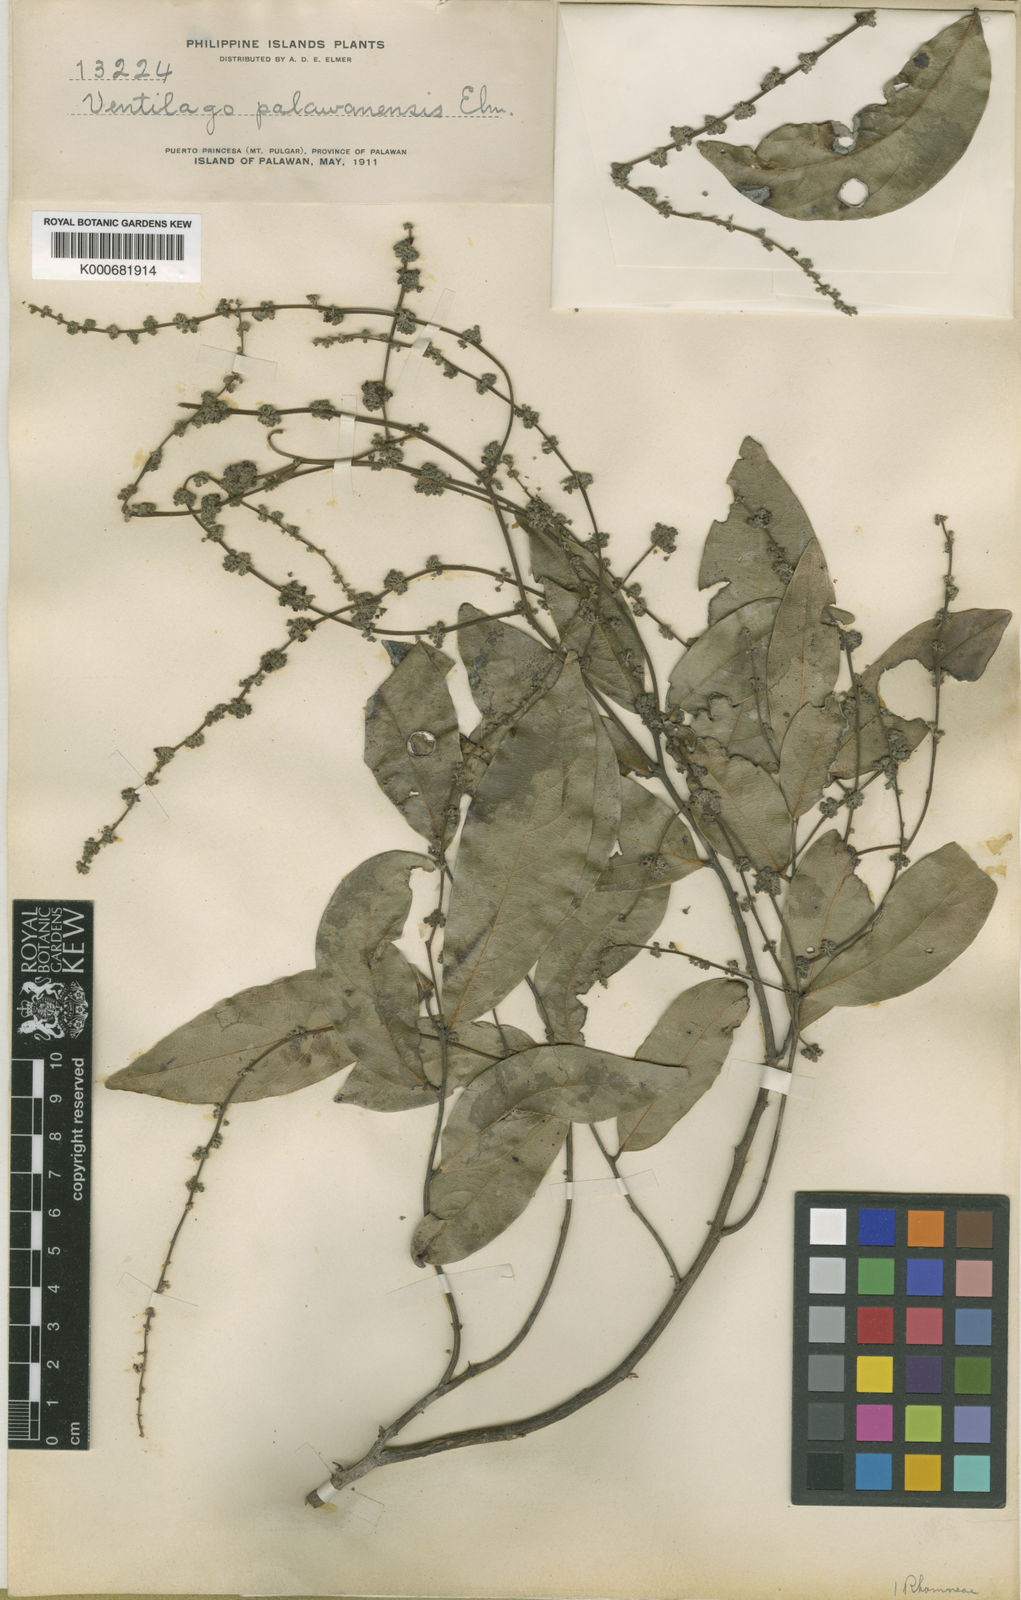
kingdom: Plantae
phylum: Tracheophyta
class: Magnoliopsida
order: Rosales
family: Rhamnaceae
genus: Ventilago
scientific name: Ventilago palawanensis
